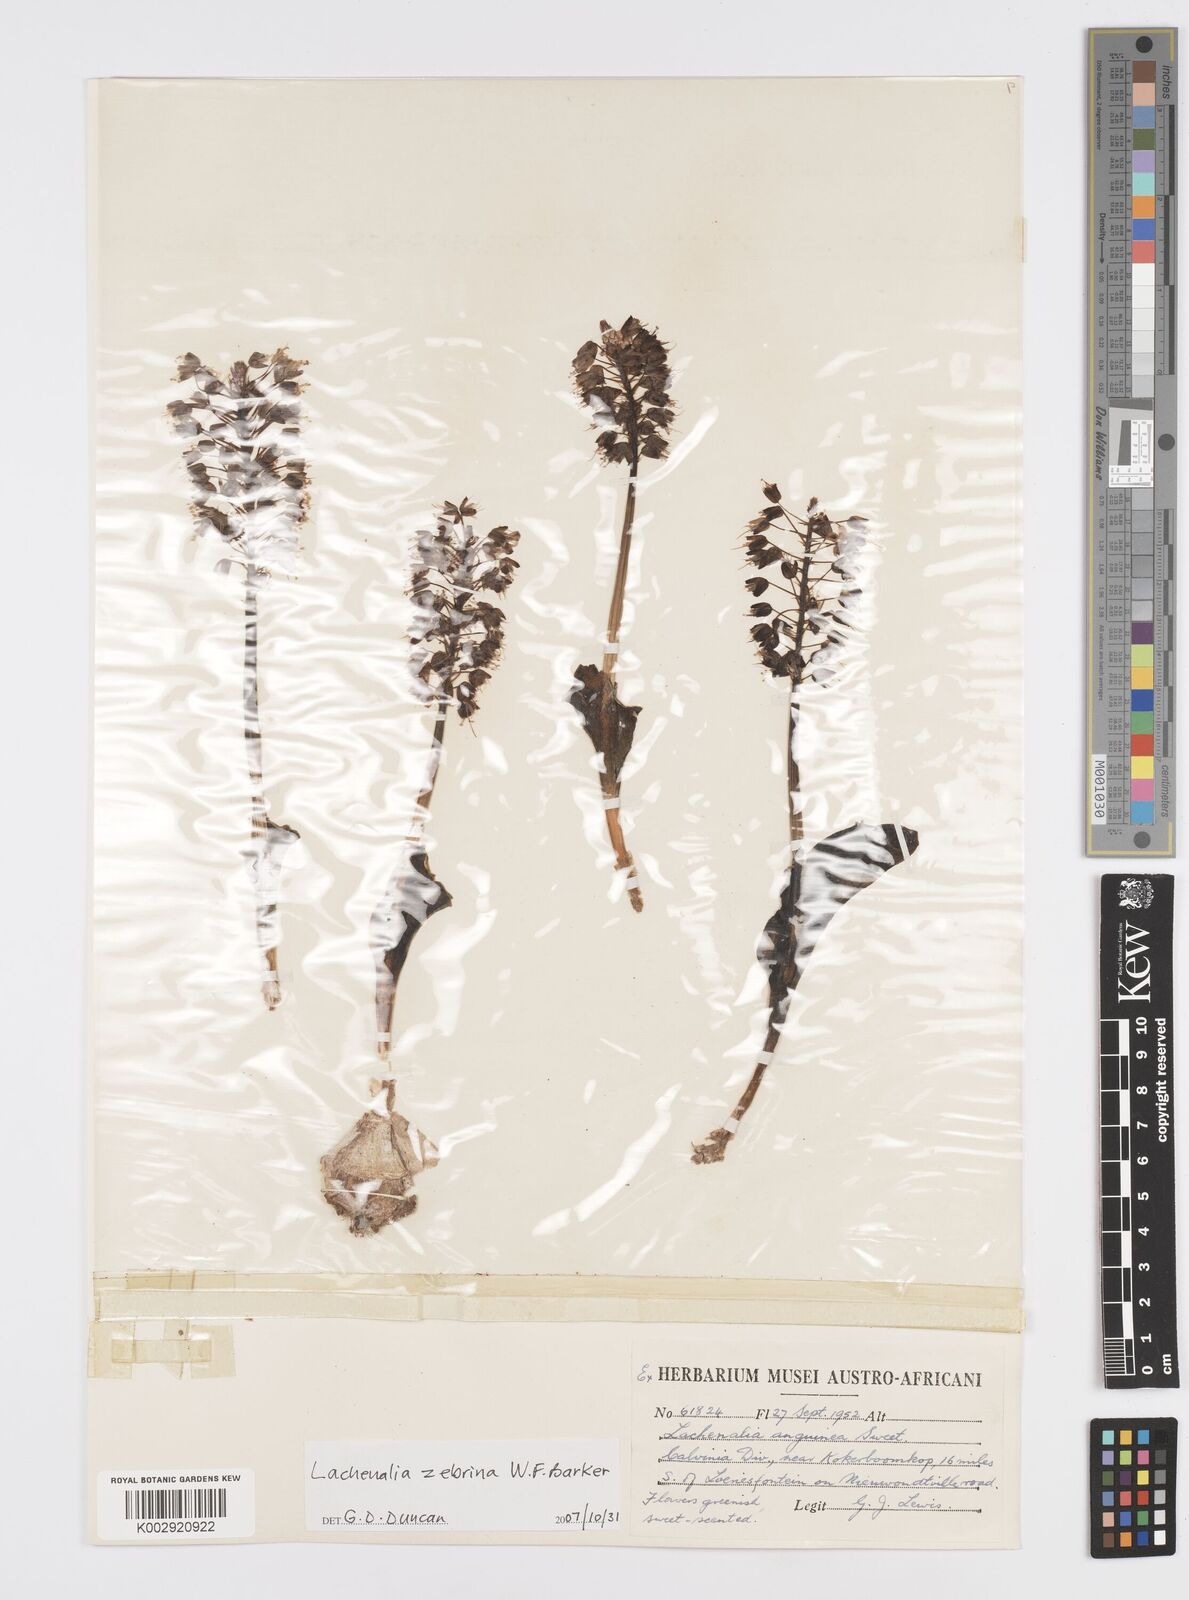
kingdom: Plantae
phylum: Tracheophyta
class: Liliopsida
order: Asparagales
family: Asparagaceae
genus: Lachenalia
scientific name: Lachenalia zebrina
